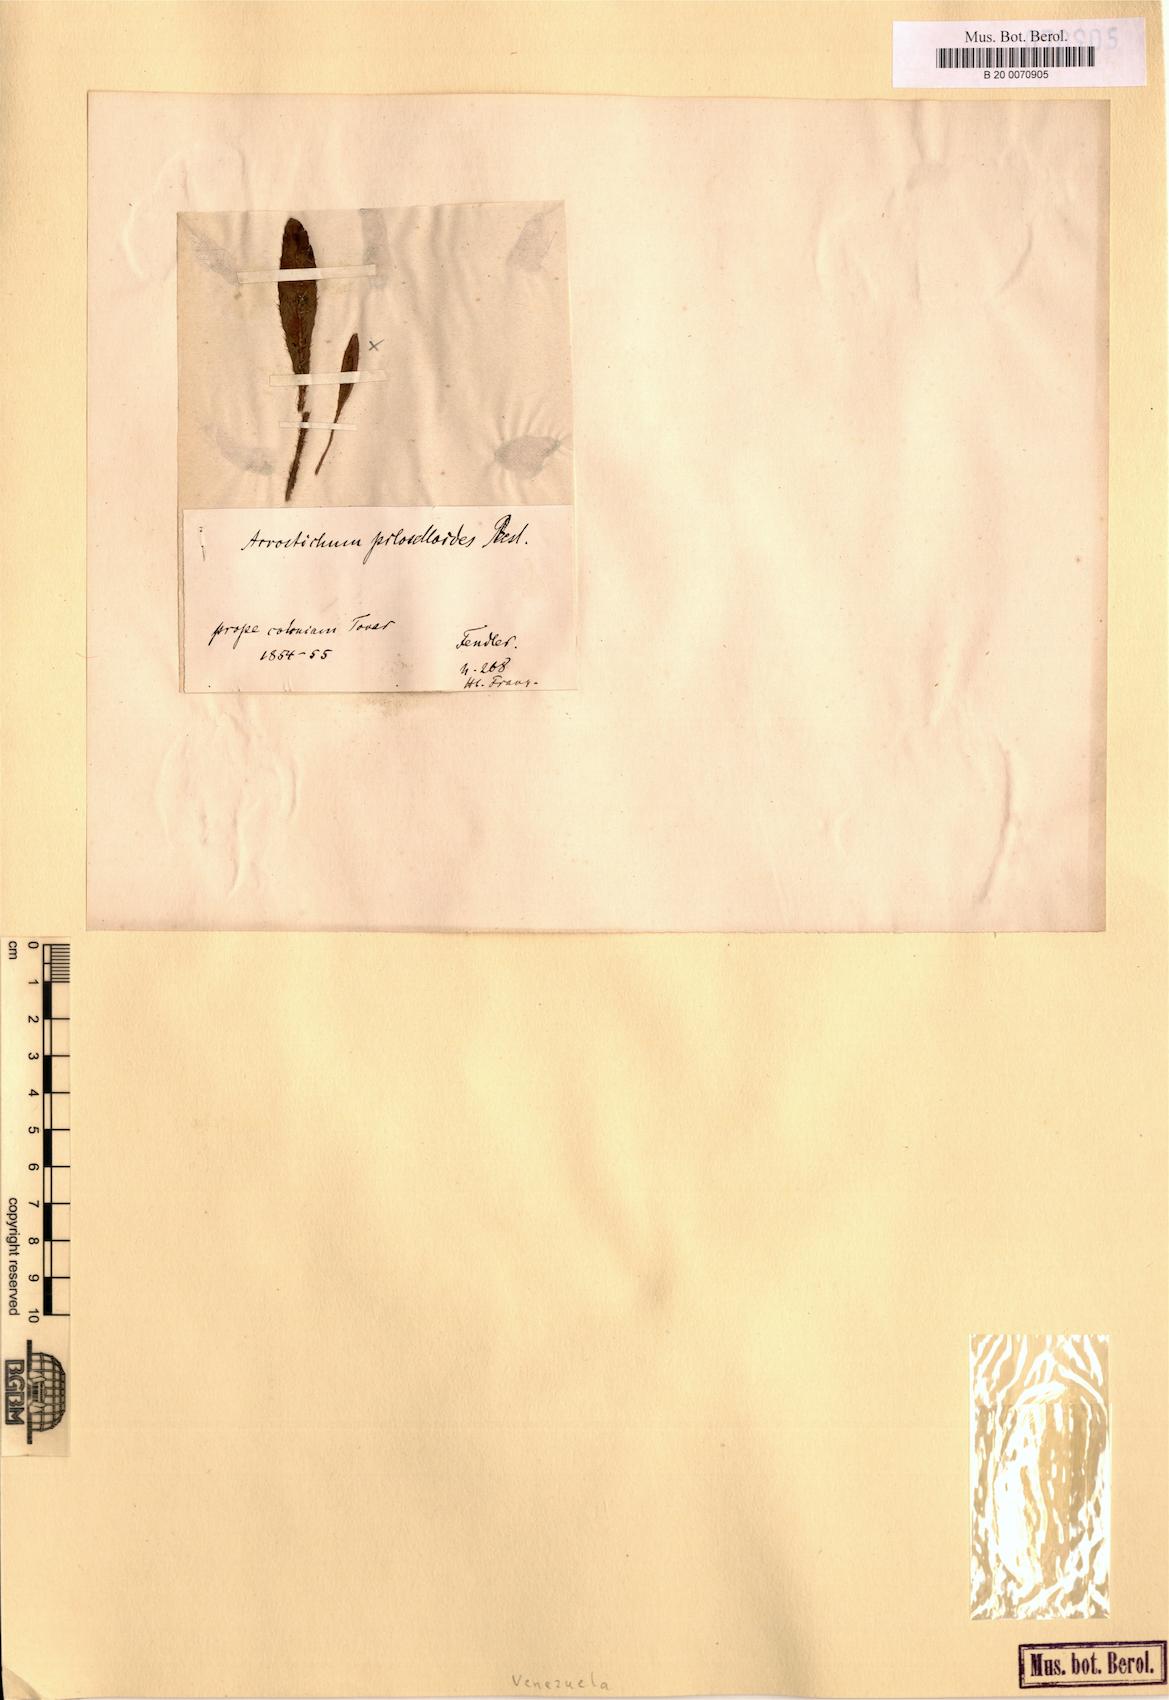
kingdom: Plantae
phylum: Tracheophyta
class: Polypodiopsida
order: Polypodiales
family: Dryopteridaceae
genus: Elaphoglossum
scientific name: Elaphoglossum piloselloides
